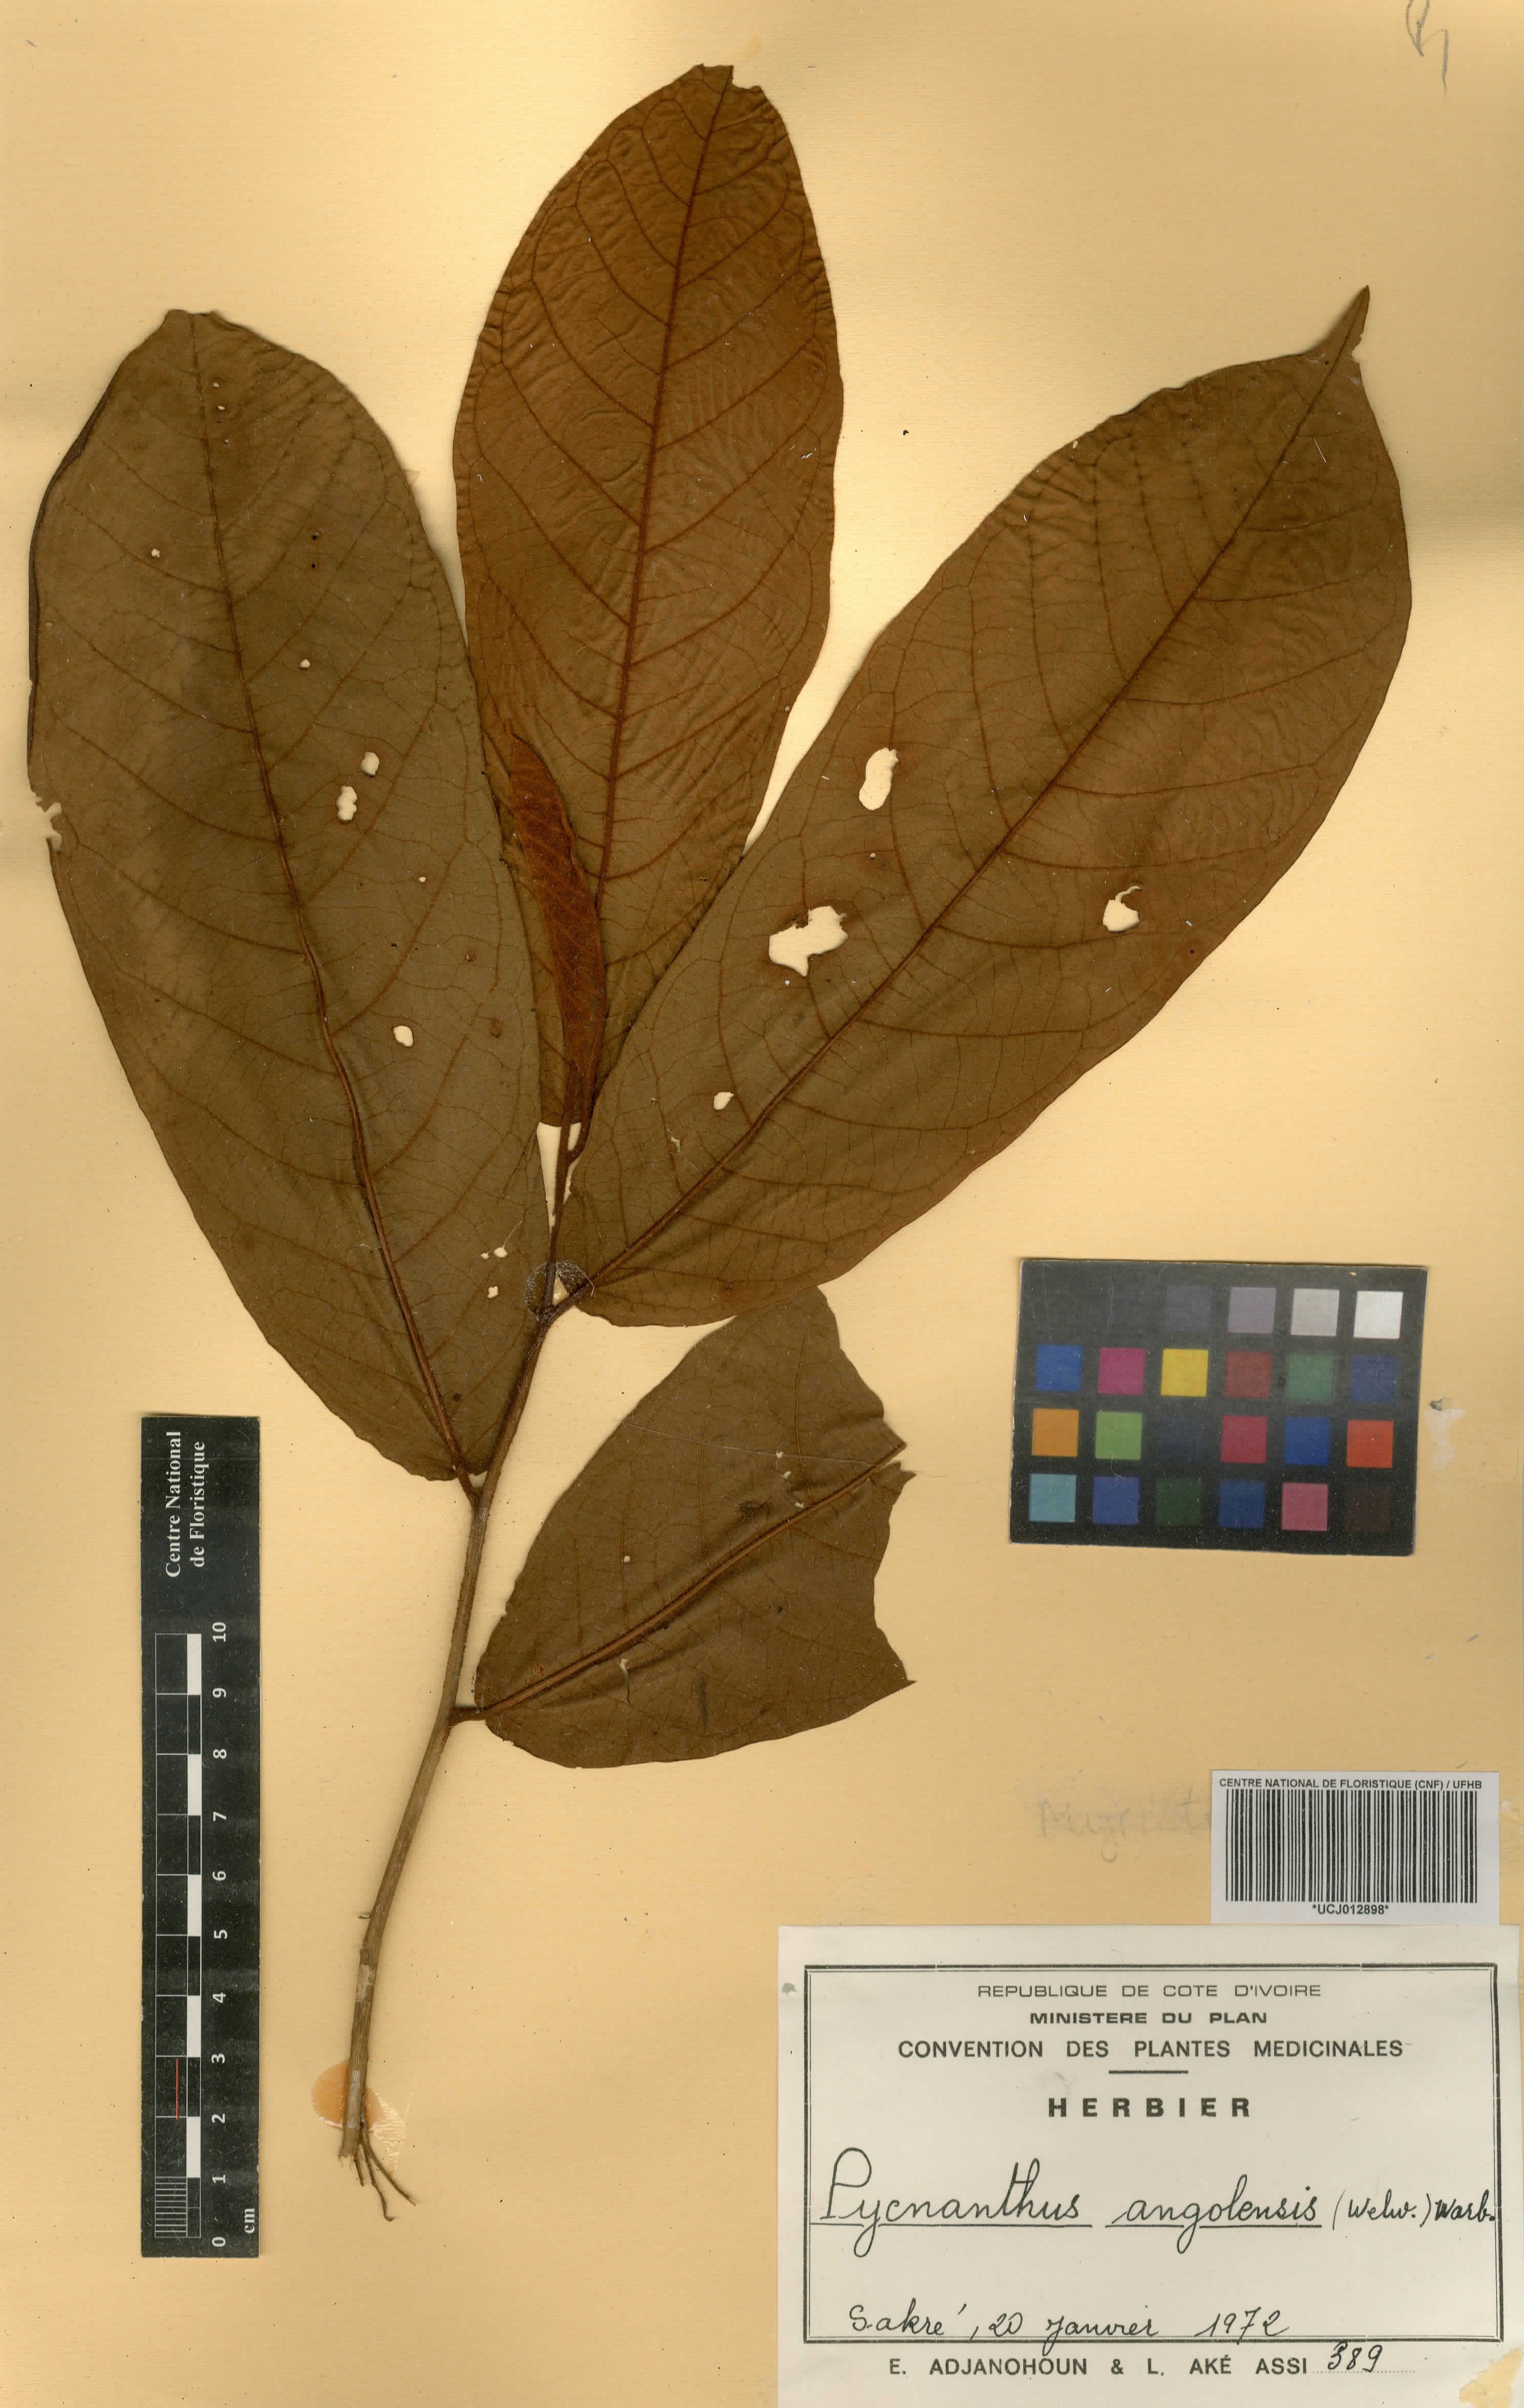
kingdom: Plantae
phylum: Tracheophyta
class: Magnoliopsida
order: Magnoliales
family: Myristicaceae
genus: Pycnanthus
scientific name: Pycnanthus angolensis
